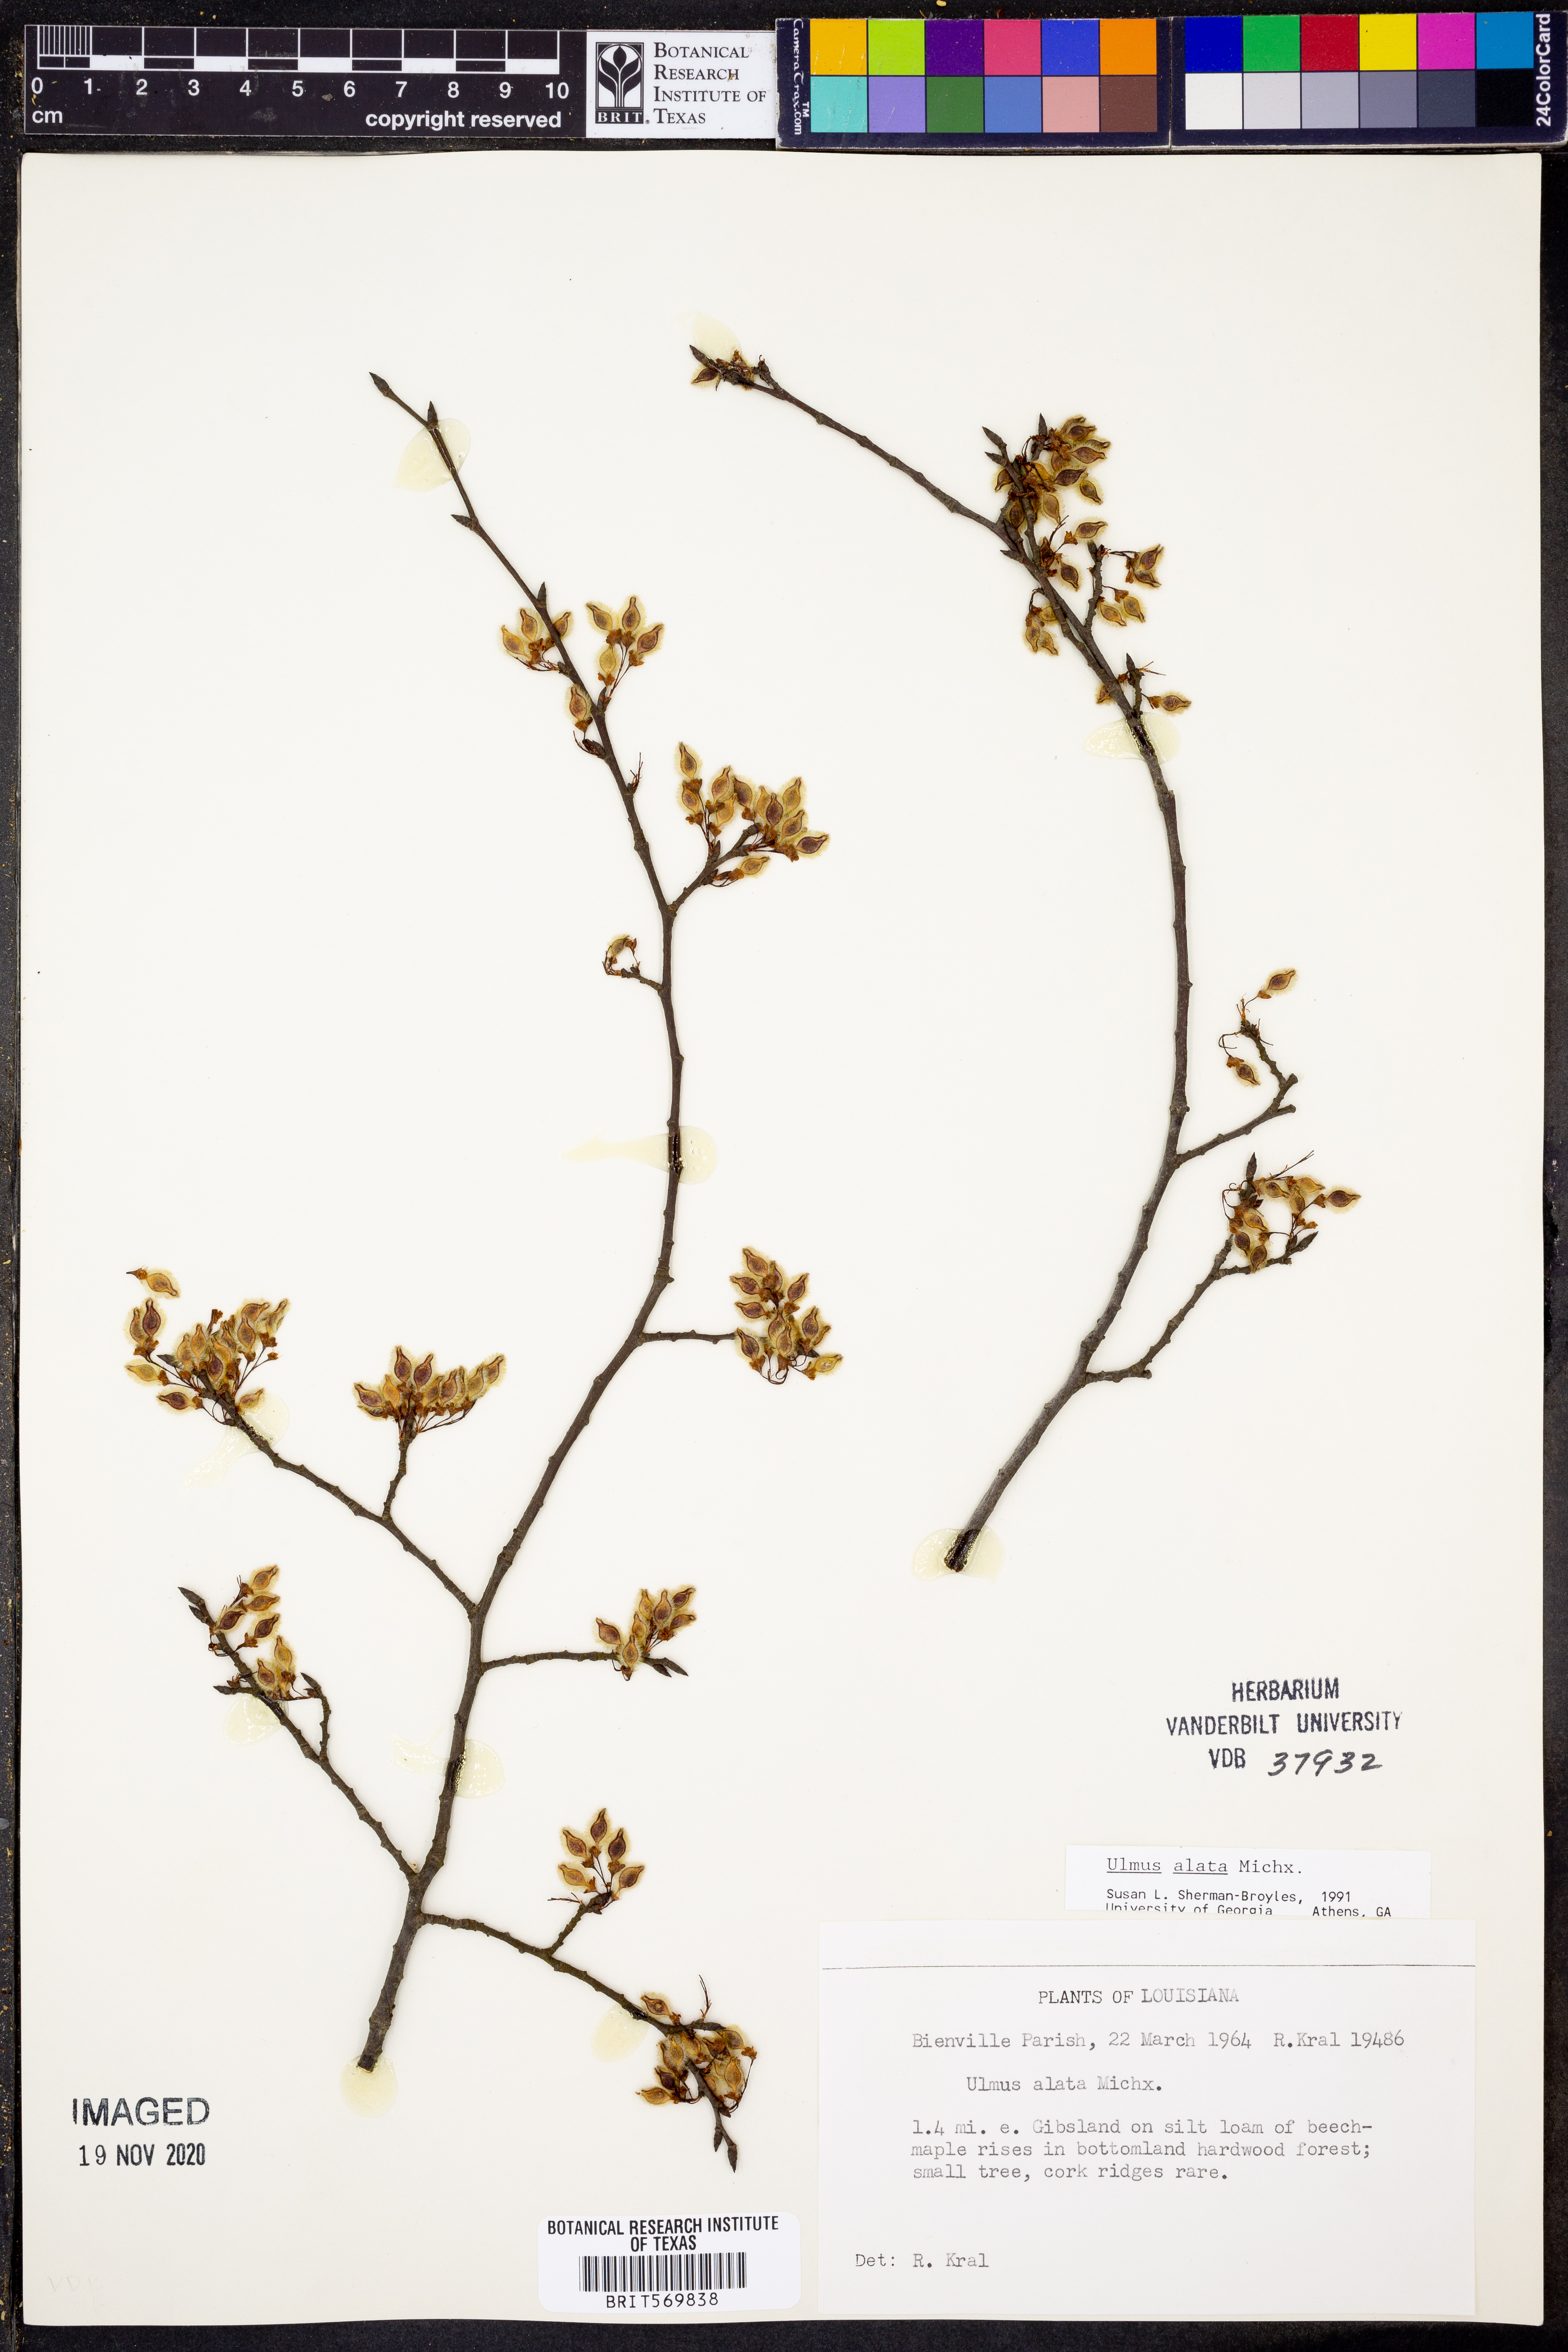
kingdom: Plantae
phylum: Tracheophyta
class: Magnoliopsida
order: Rosales
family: Ulmaceae
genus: Ulmus
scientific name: Ulmus alata
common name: Winged elm
